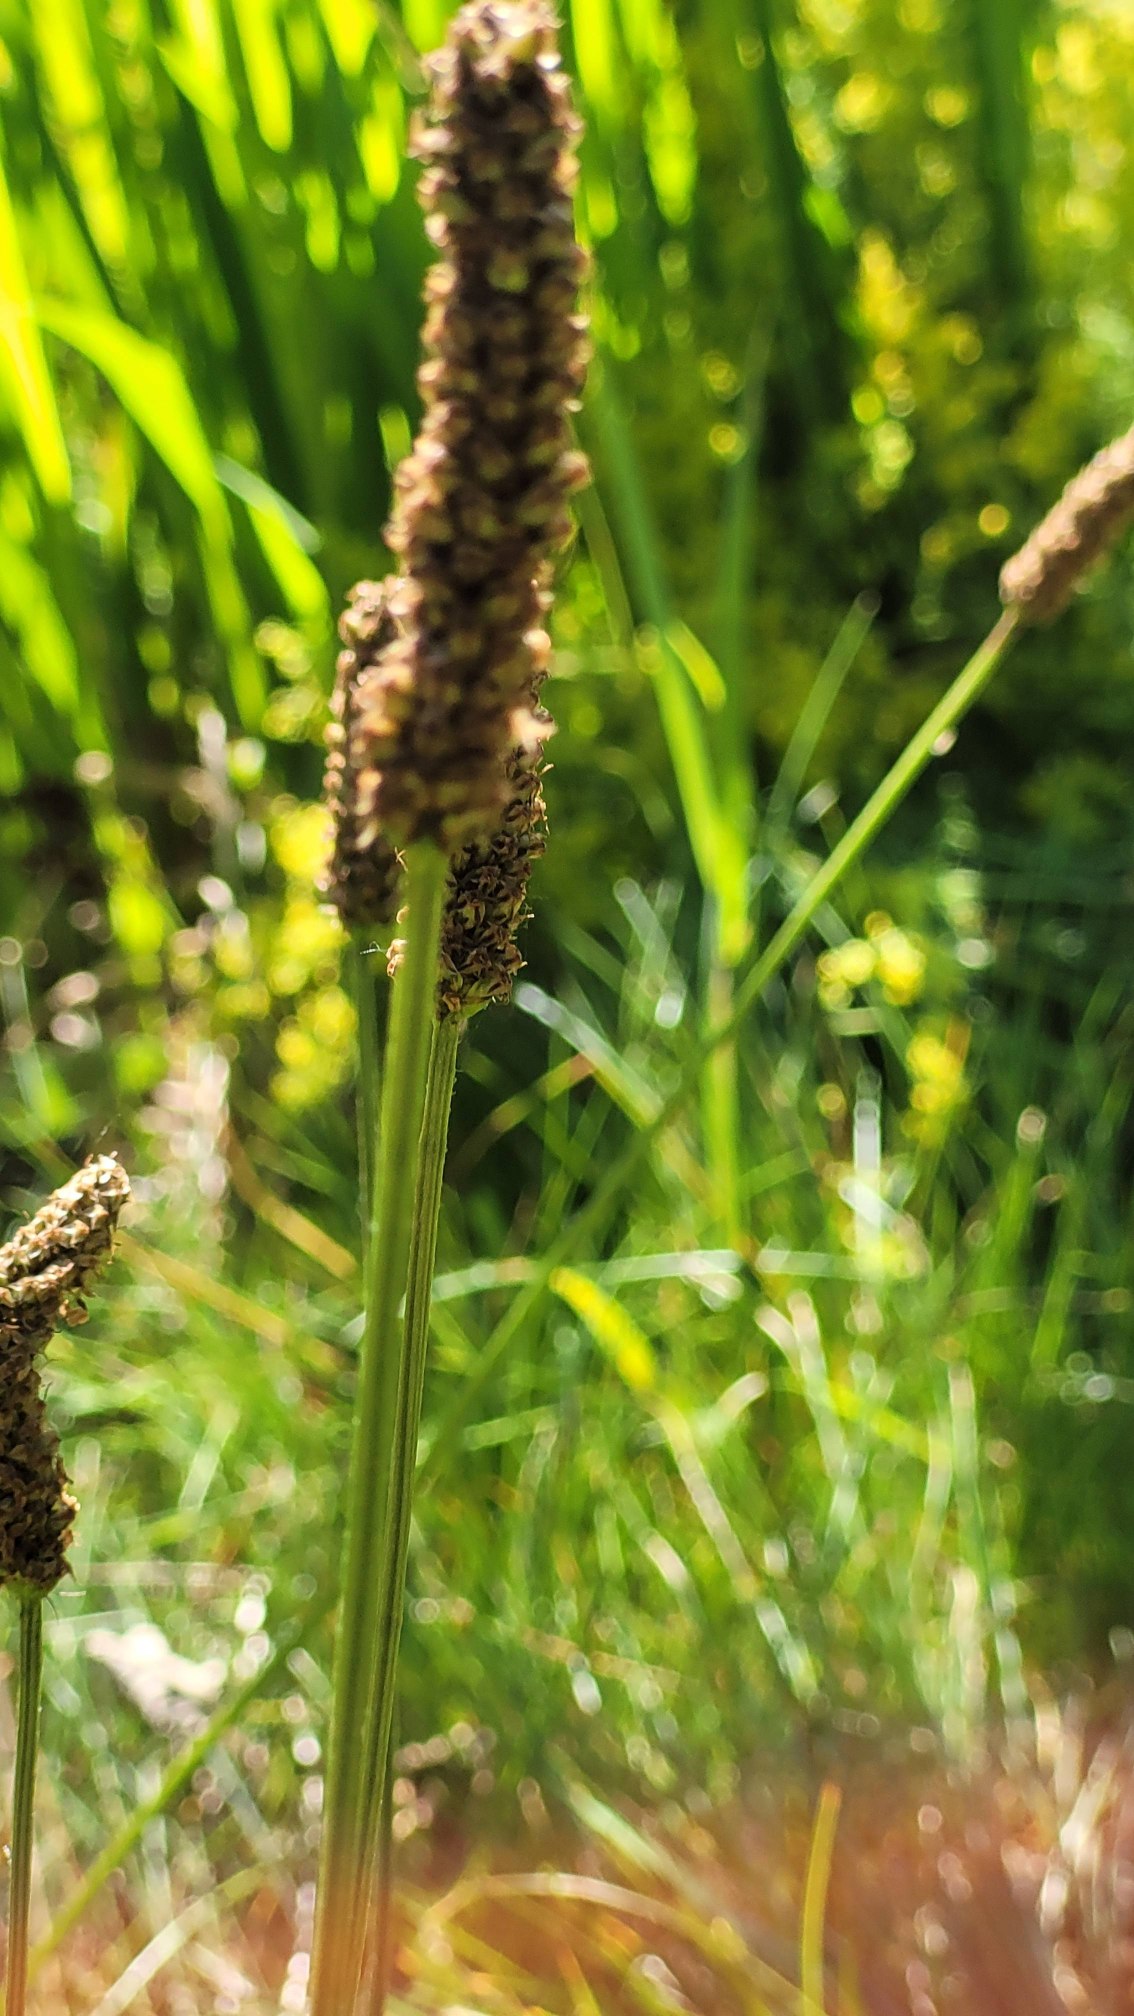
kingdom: Plantae
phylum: Tracheophyta
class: Magnoliopsida
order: Lamiales
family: Plantaginaceae
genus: Plantago
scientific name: Plantago lanceolata
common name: Lancet-vejbred
